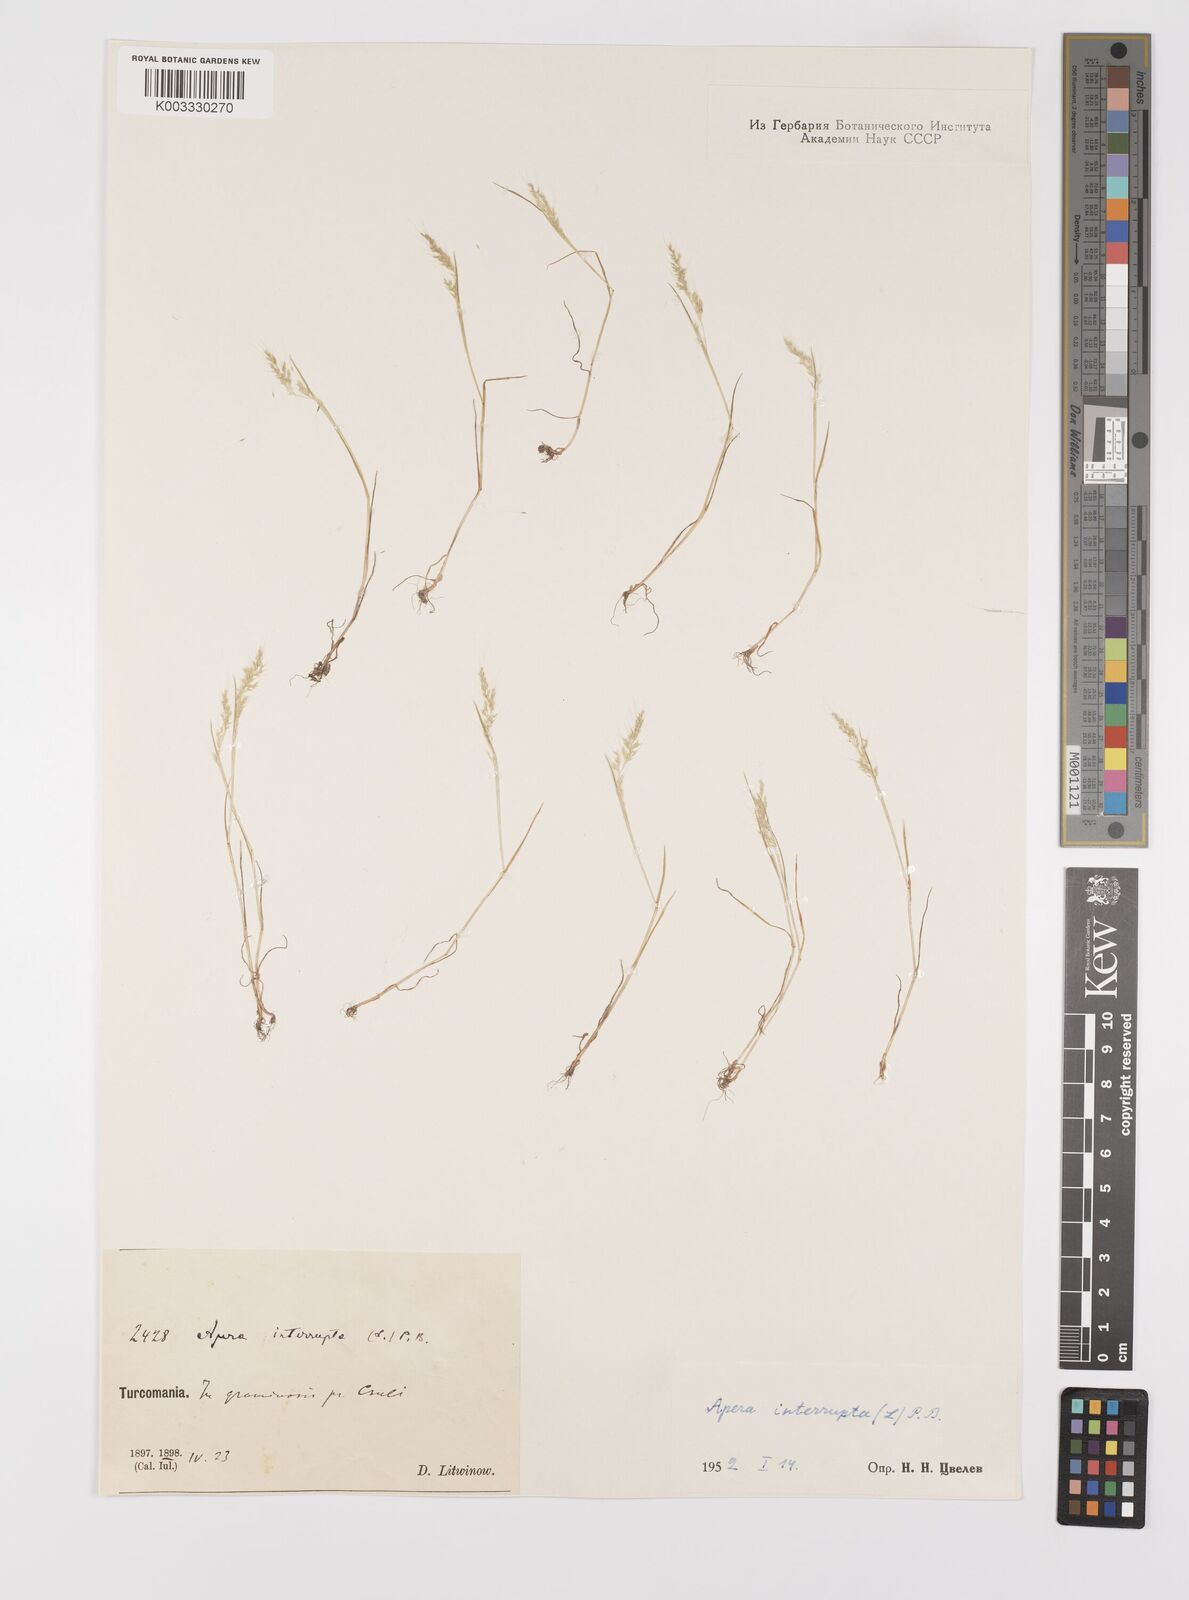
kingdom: Plantae
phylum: Tracheophyta
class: Liliopsida
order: Poales
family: Poaceae
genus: Apera
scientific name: Apera interrupta
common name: Dense silky-bent
